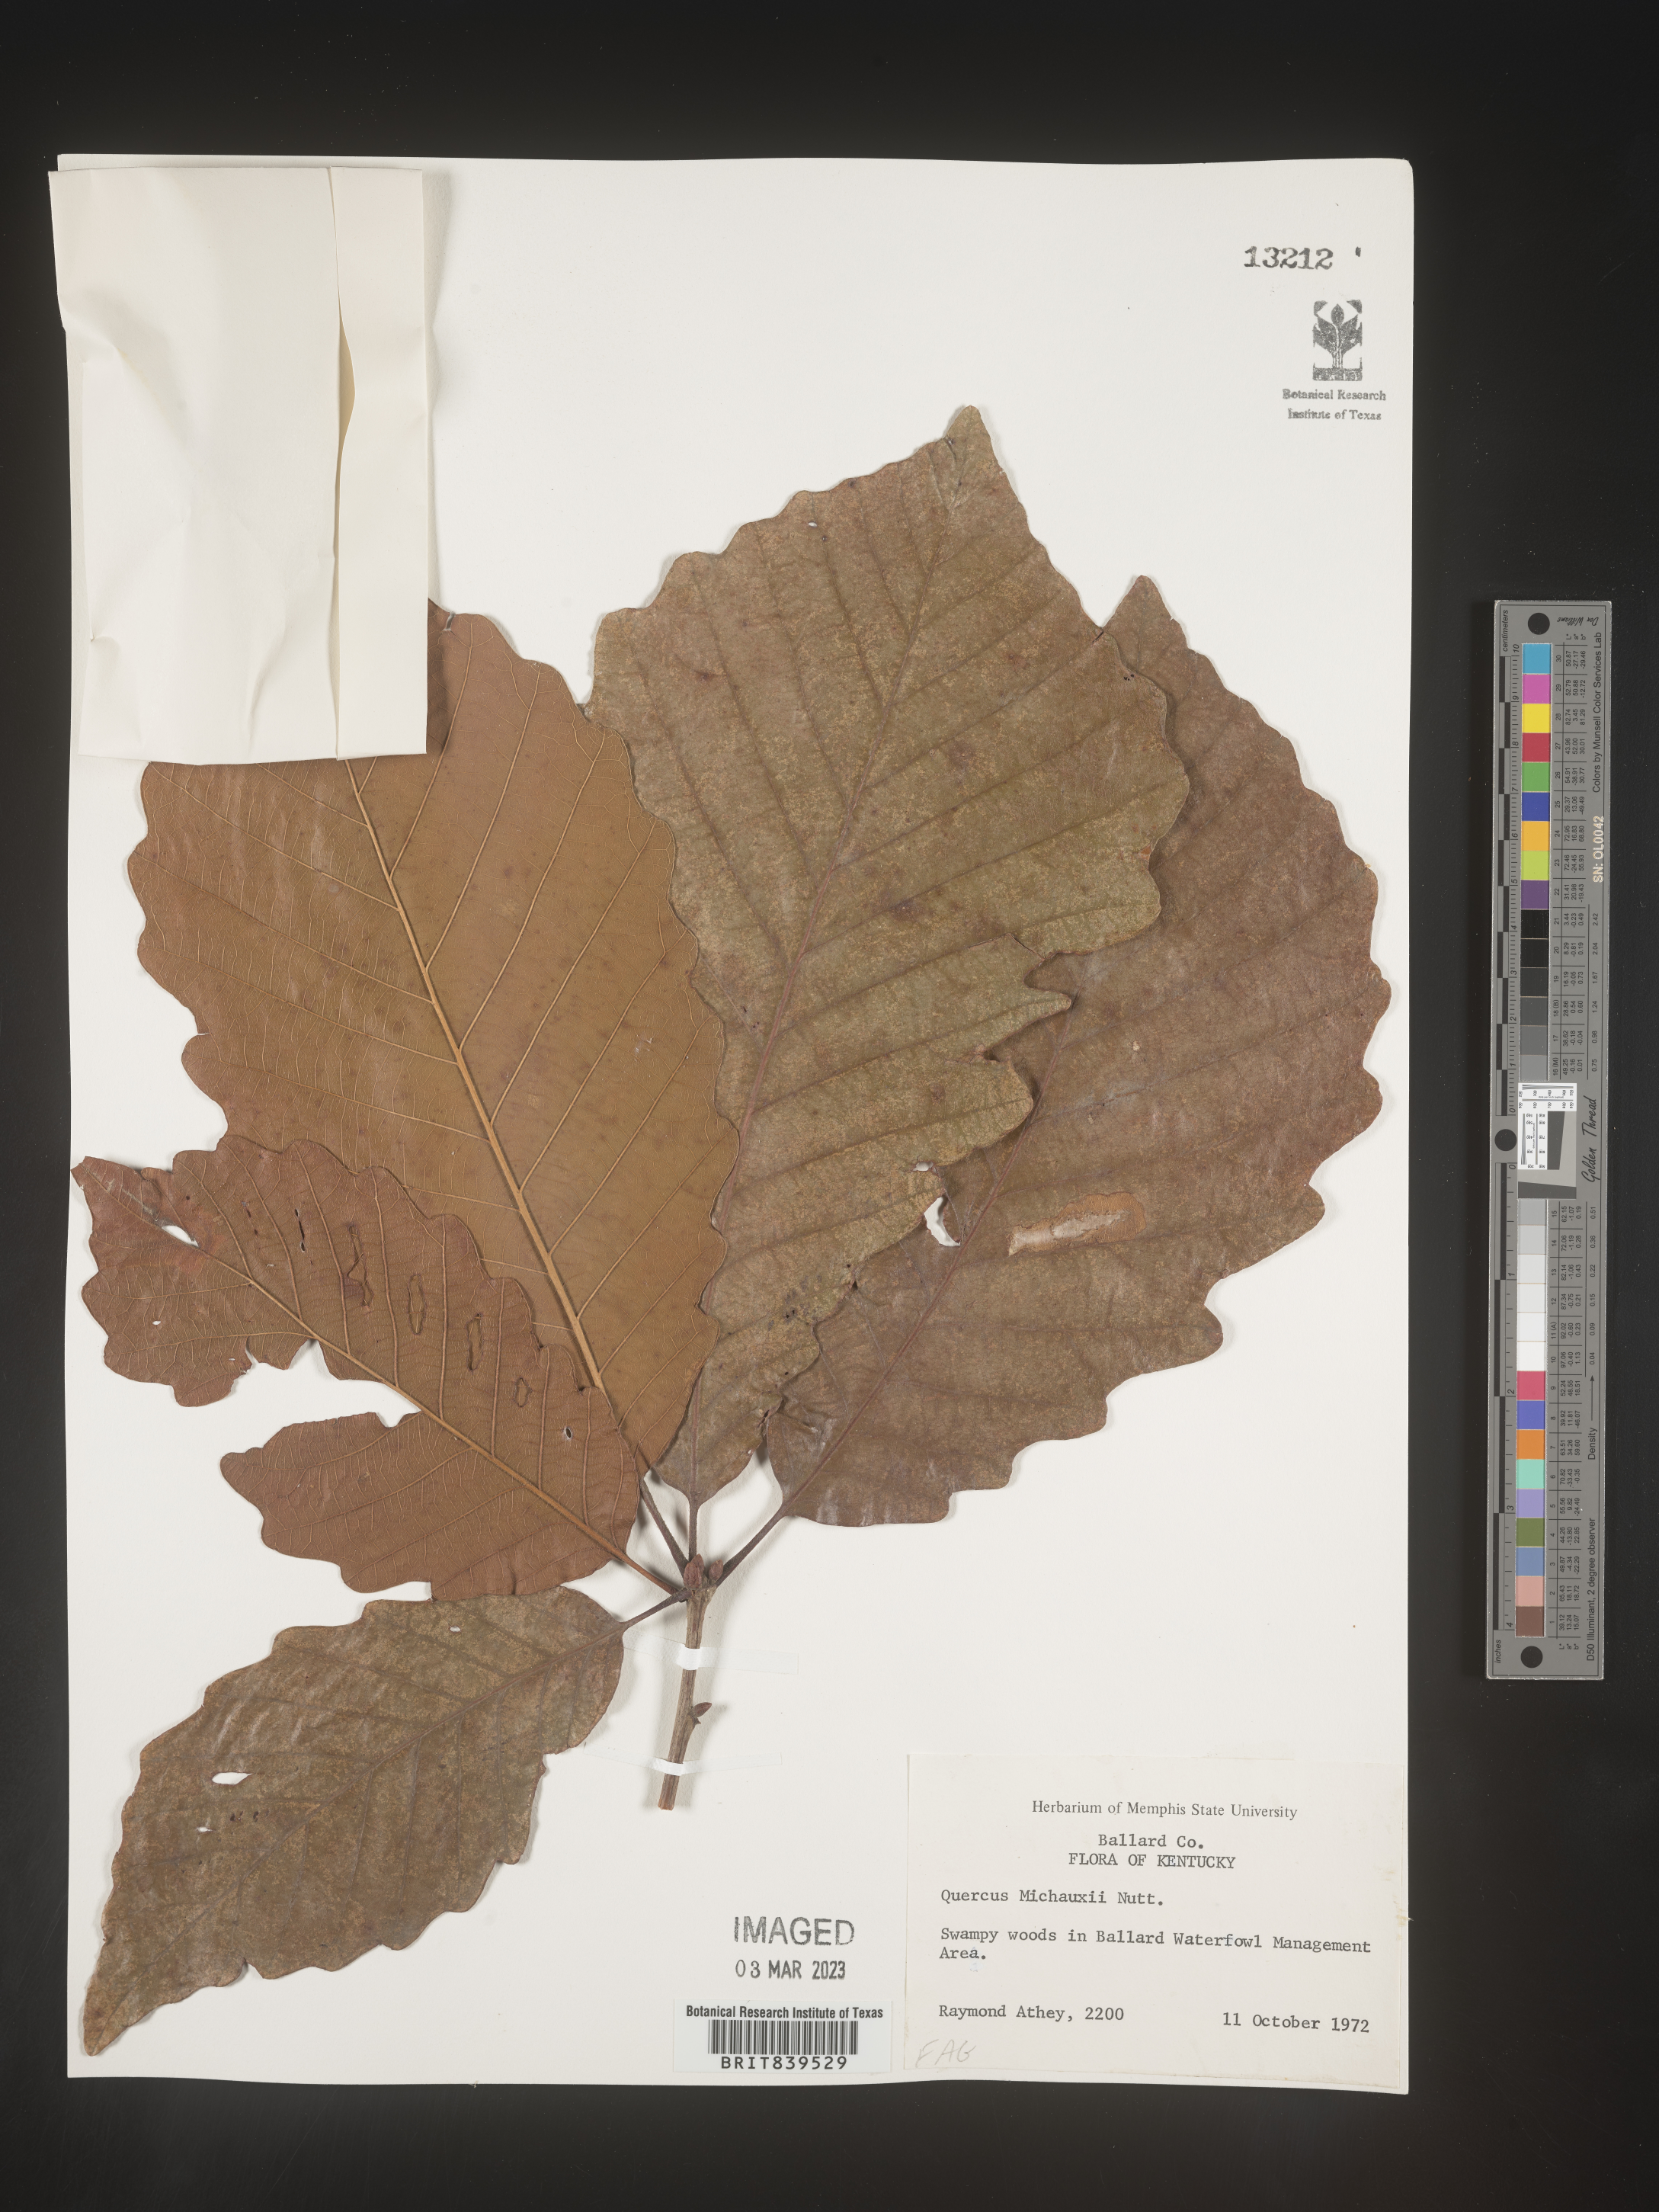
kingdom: Plantae
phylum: Tracheophyta
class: Magnoliopsida
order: Fagales
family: Fagaceae
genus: Quercus
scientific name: Quercus michauxii
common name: Swamp chestnut oak
